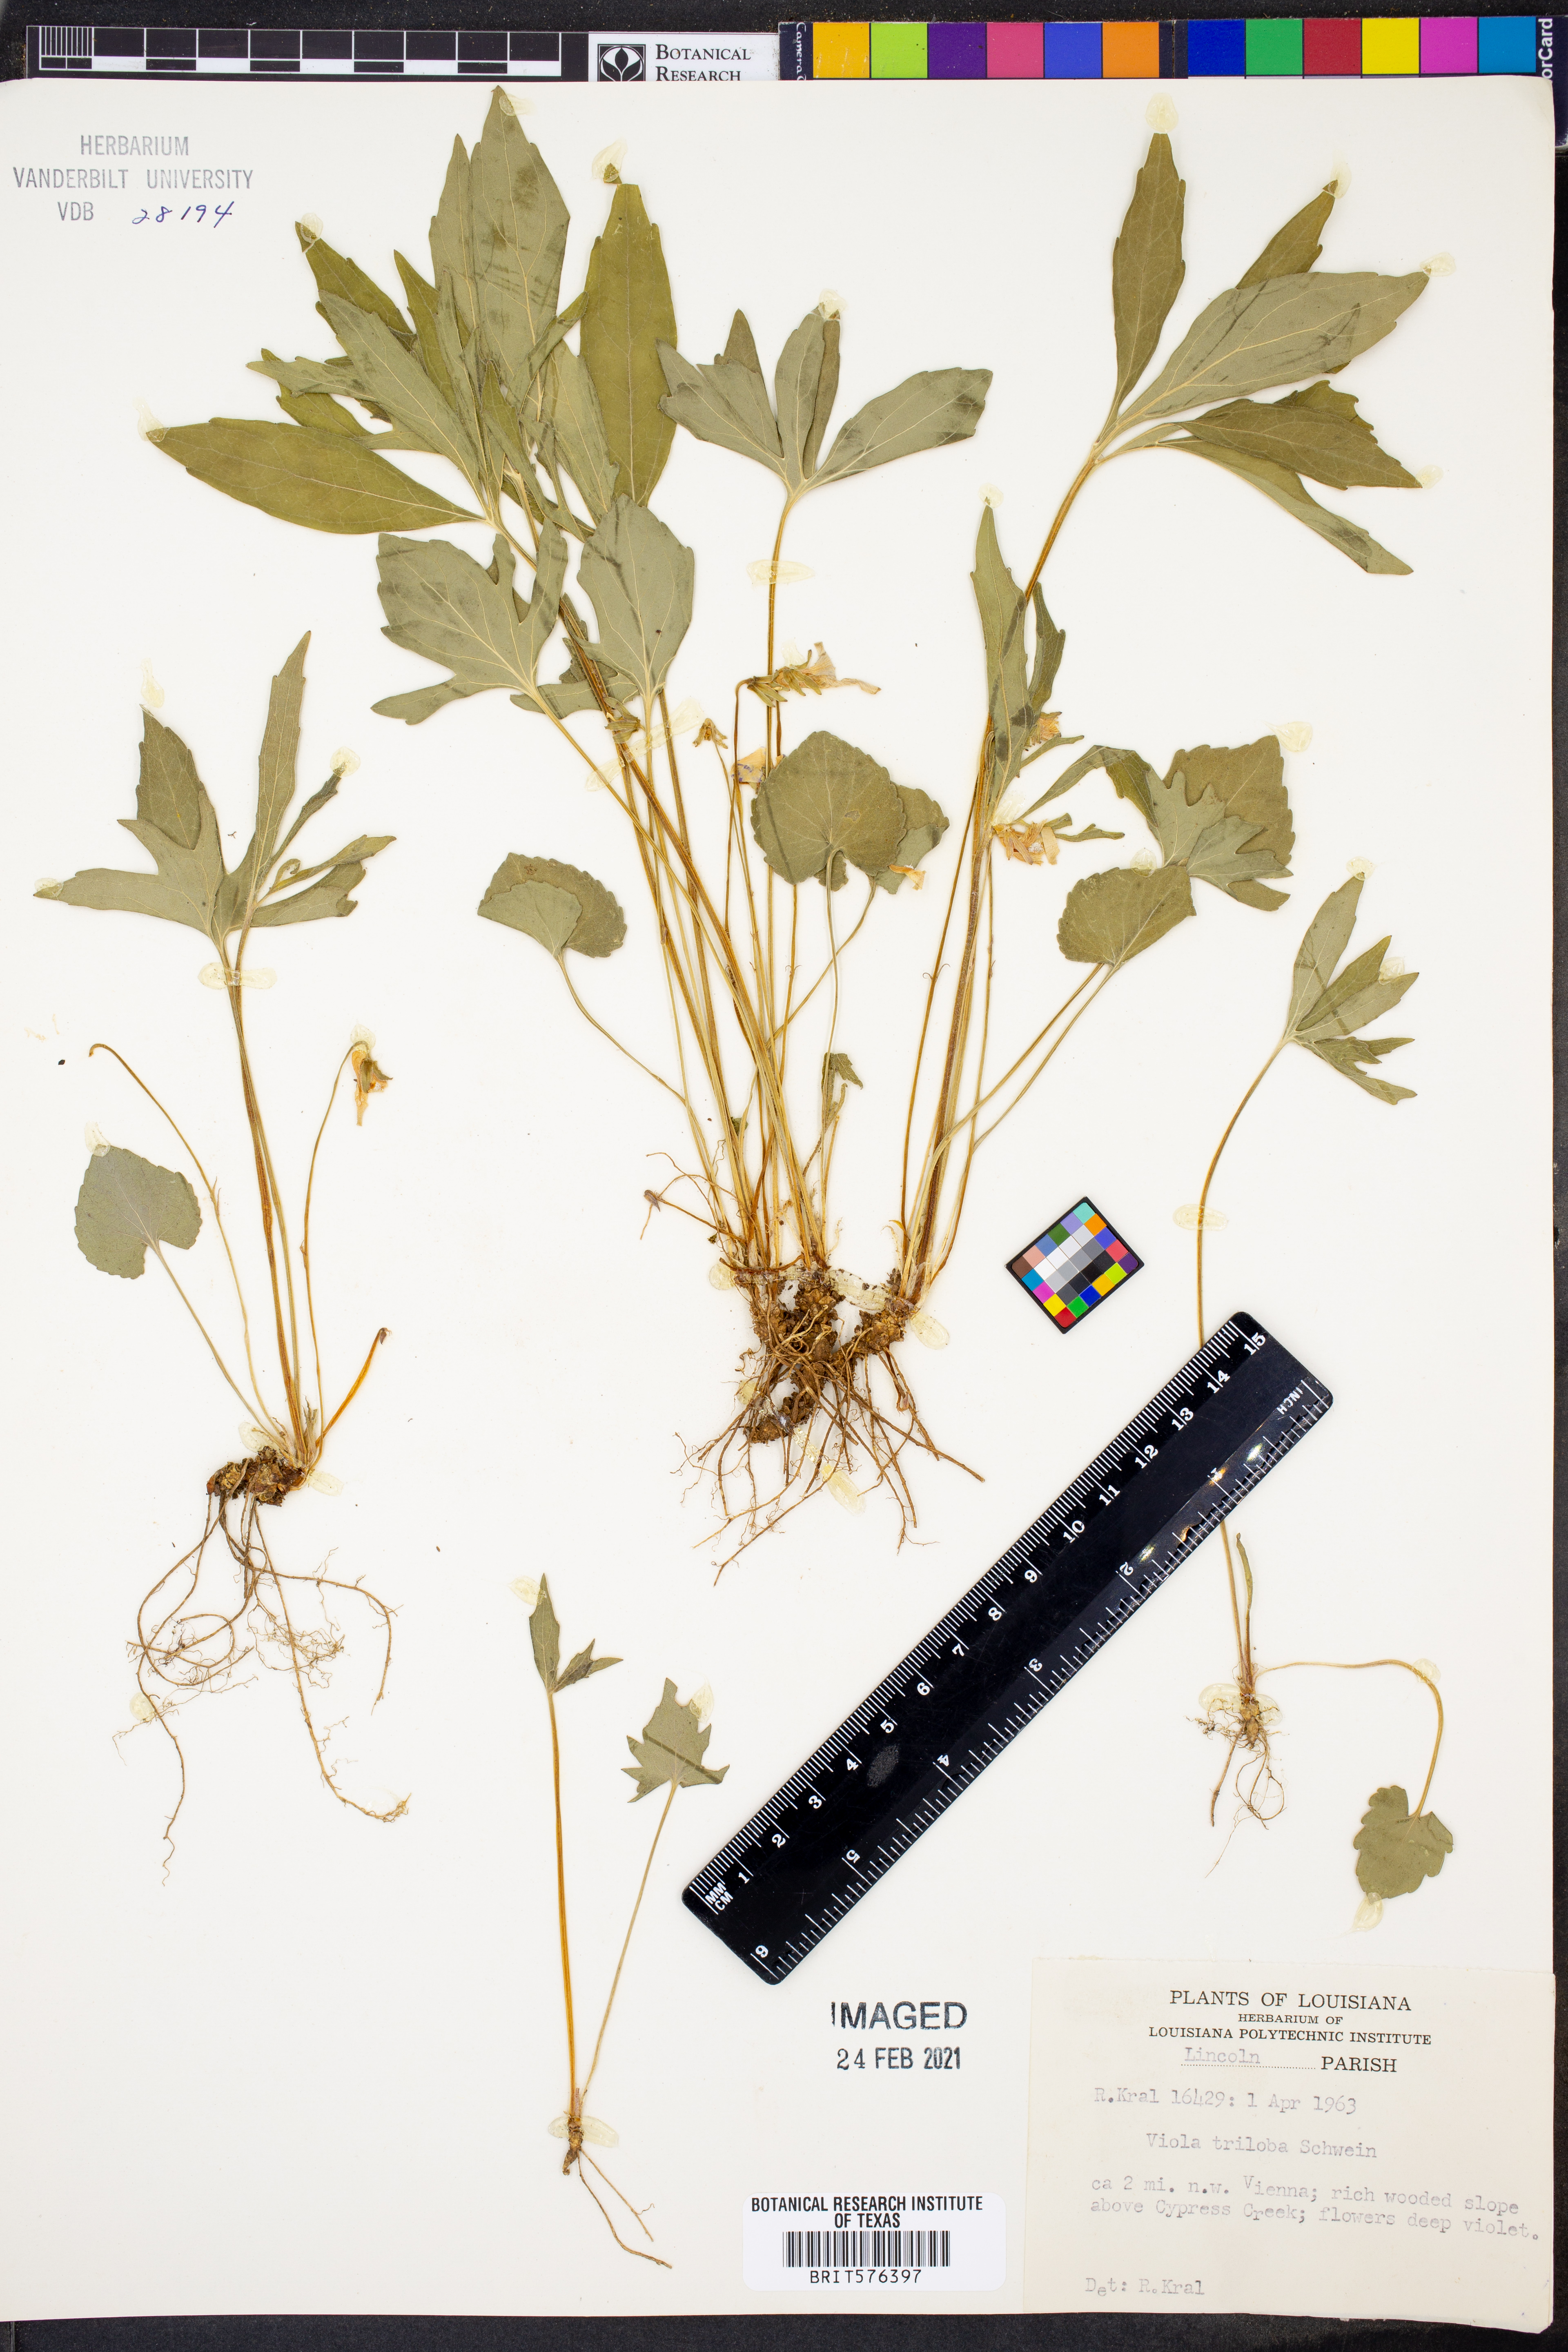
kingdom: Plantae
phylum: Tracheophyta
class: Magnoliopsida
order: Malpighiales
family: Violaceae
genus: Viola
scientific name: Viola palmata
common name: Early blue violet
